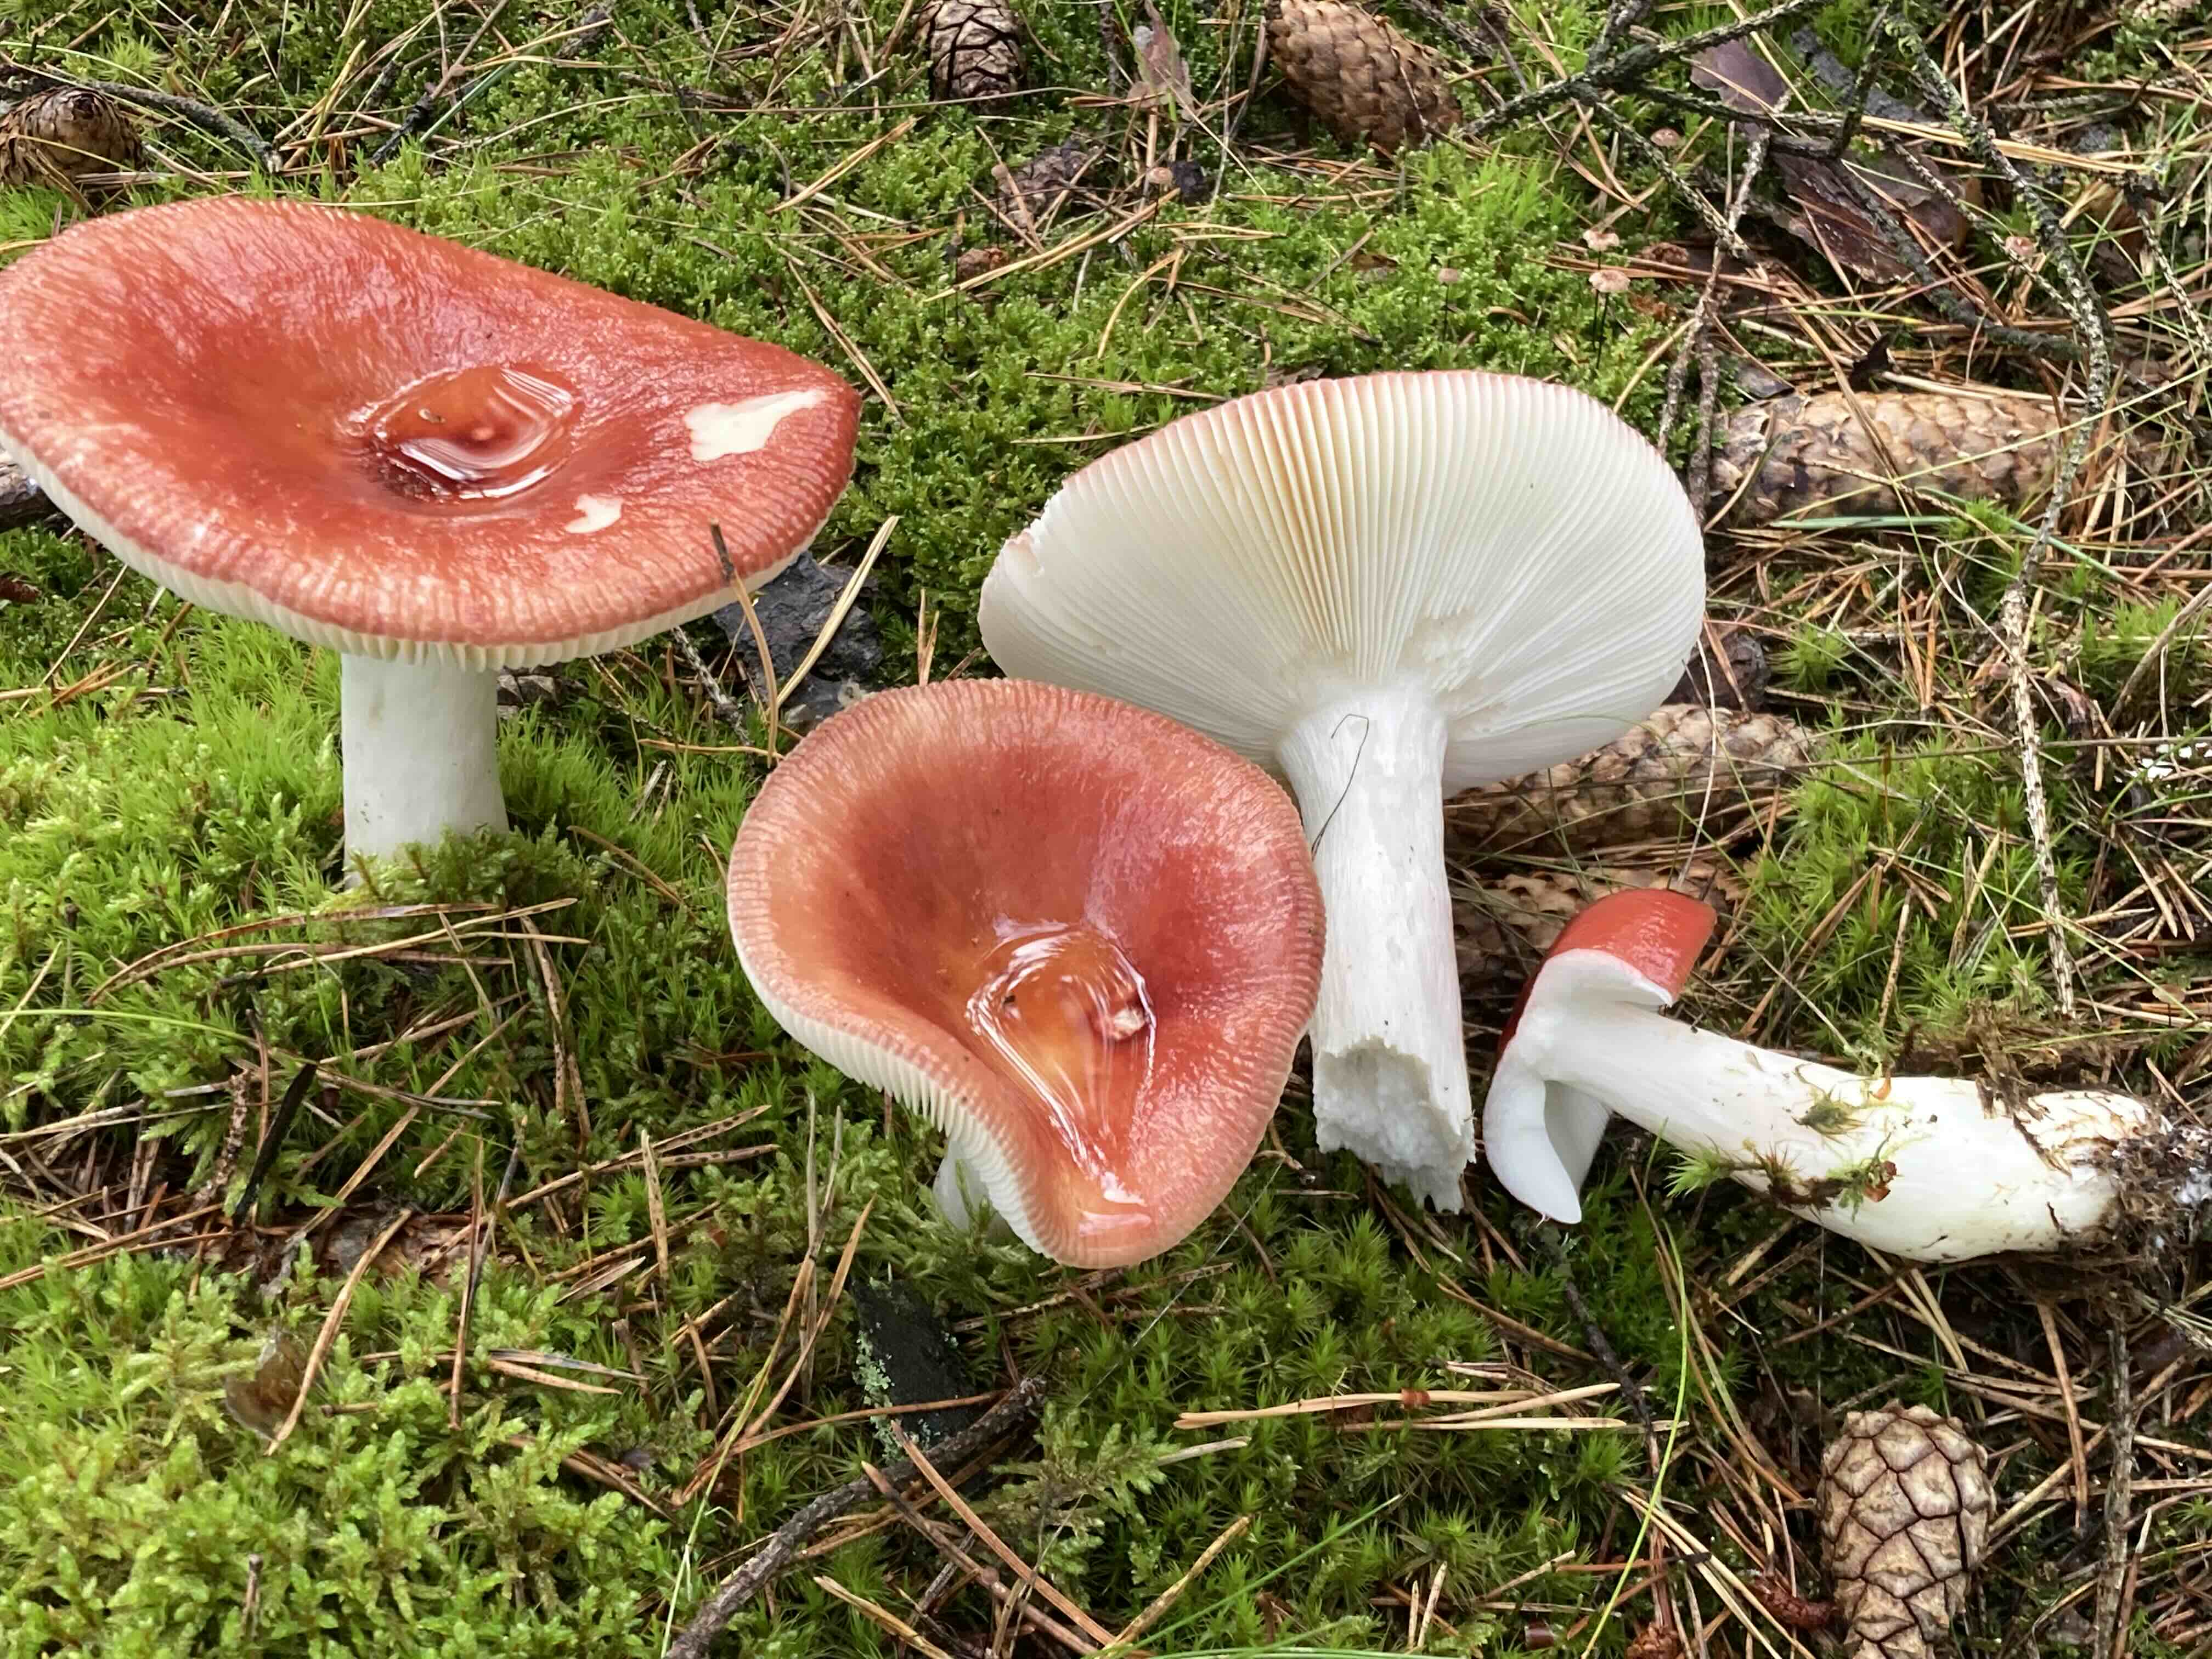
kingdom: Fungi
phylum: Basidiomycota
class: Agaricomycetes
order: Russulales
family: Russulaceae
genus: Russula
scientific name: Russula paludosa
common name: prægtig skørhat
